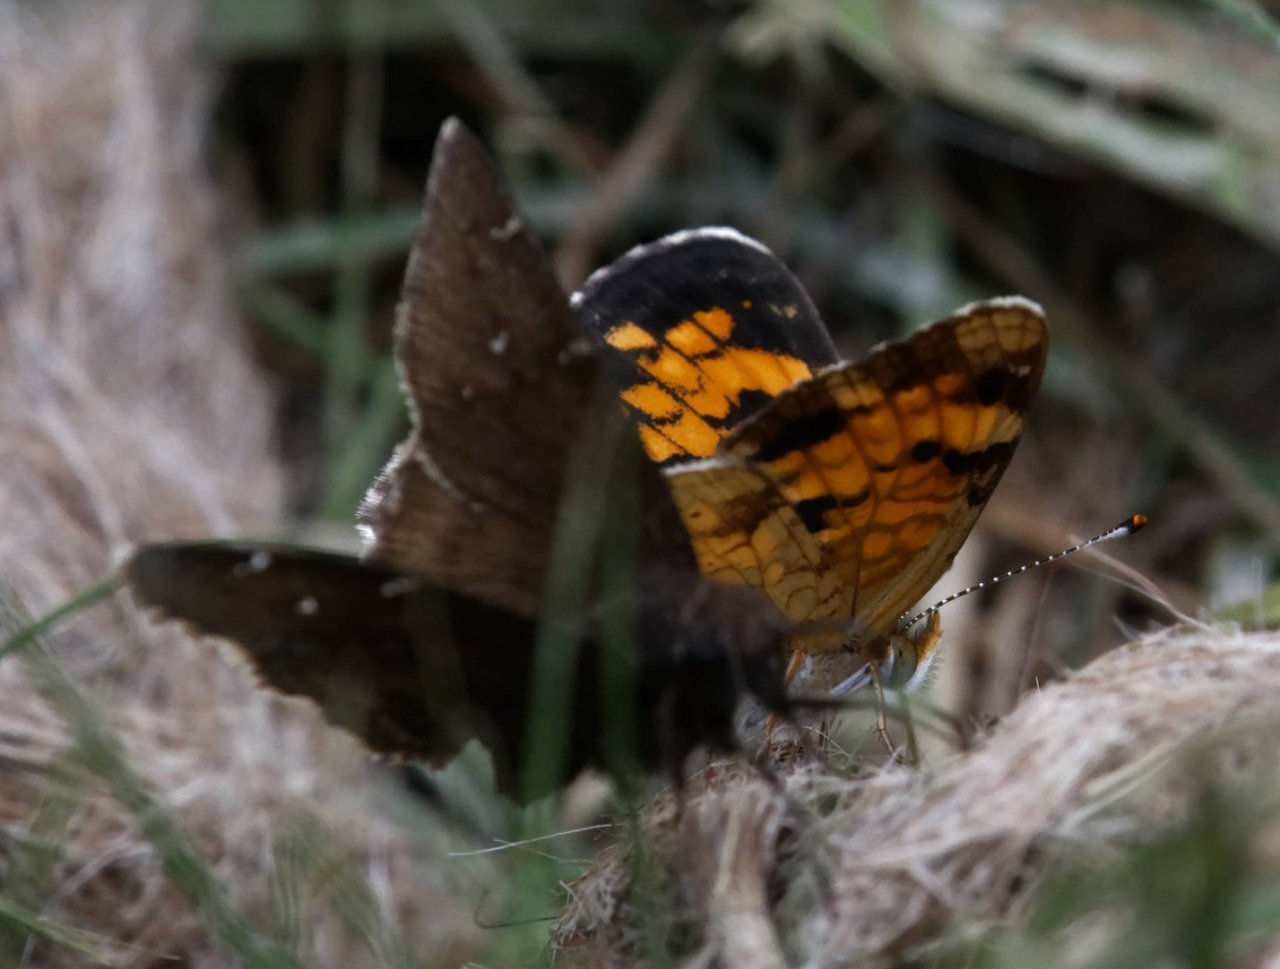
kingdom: Animalia
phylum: Arthropoda
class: Insecta
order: Lepidoptera
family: Nymphalidae
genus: Phyciodes
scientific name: Phyciodes
